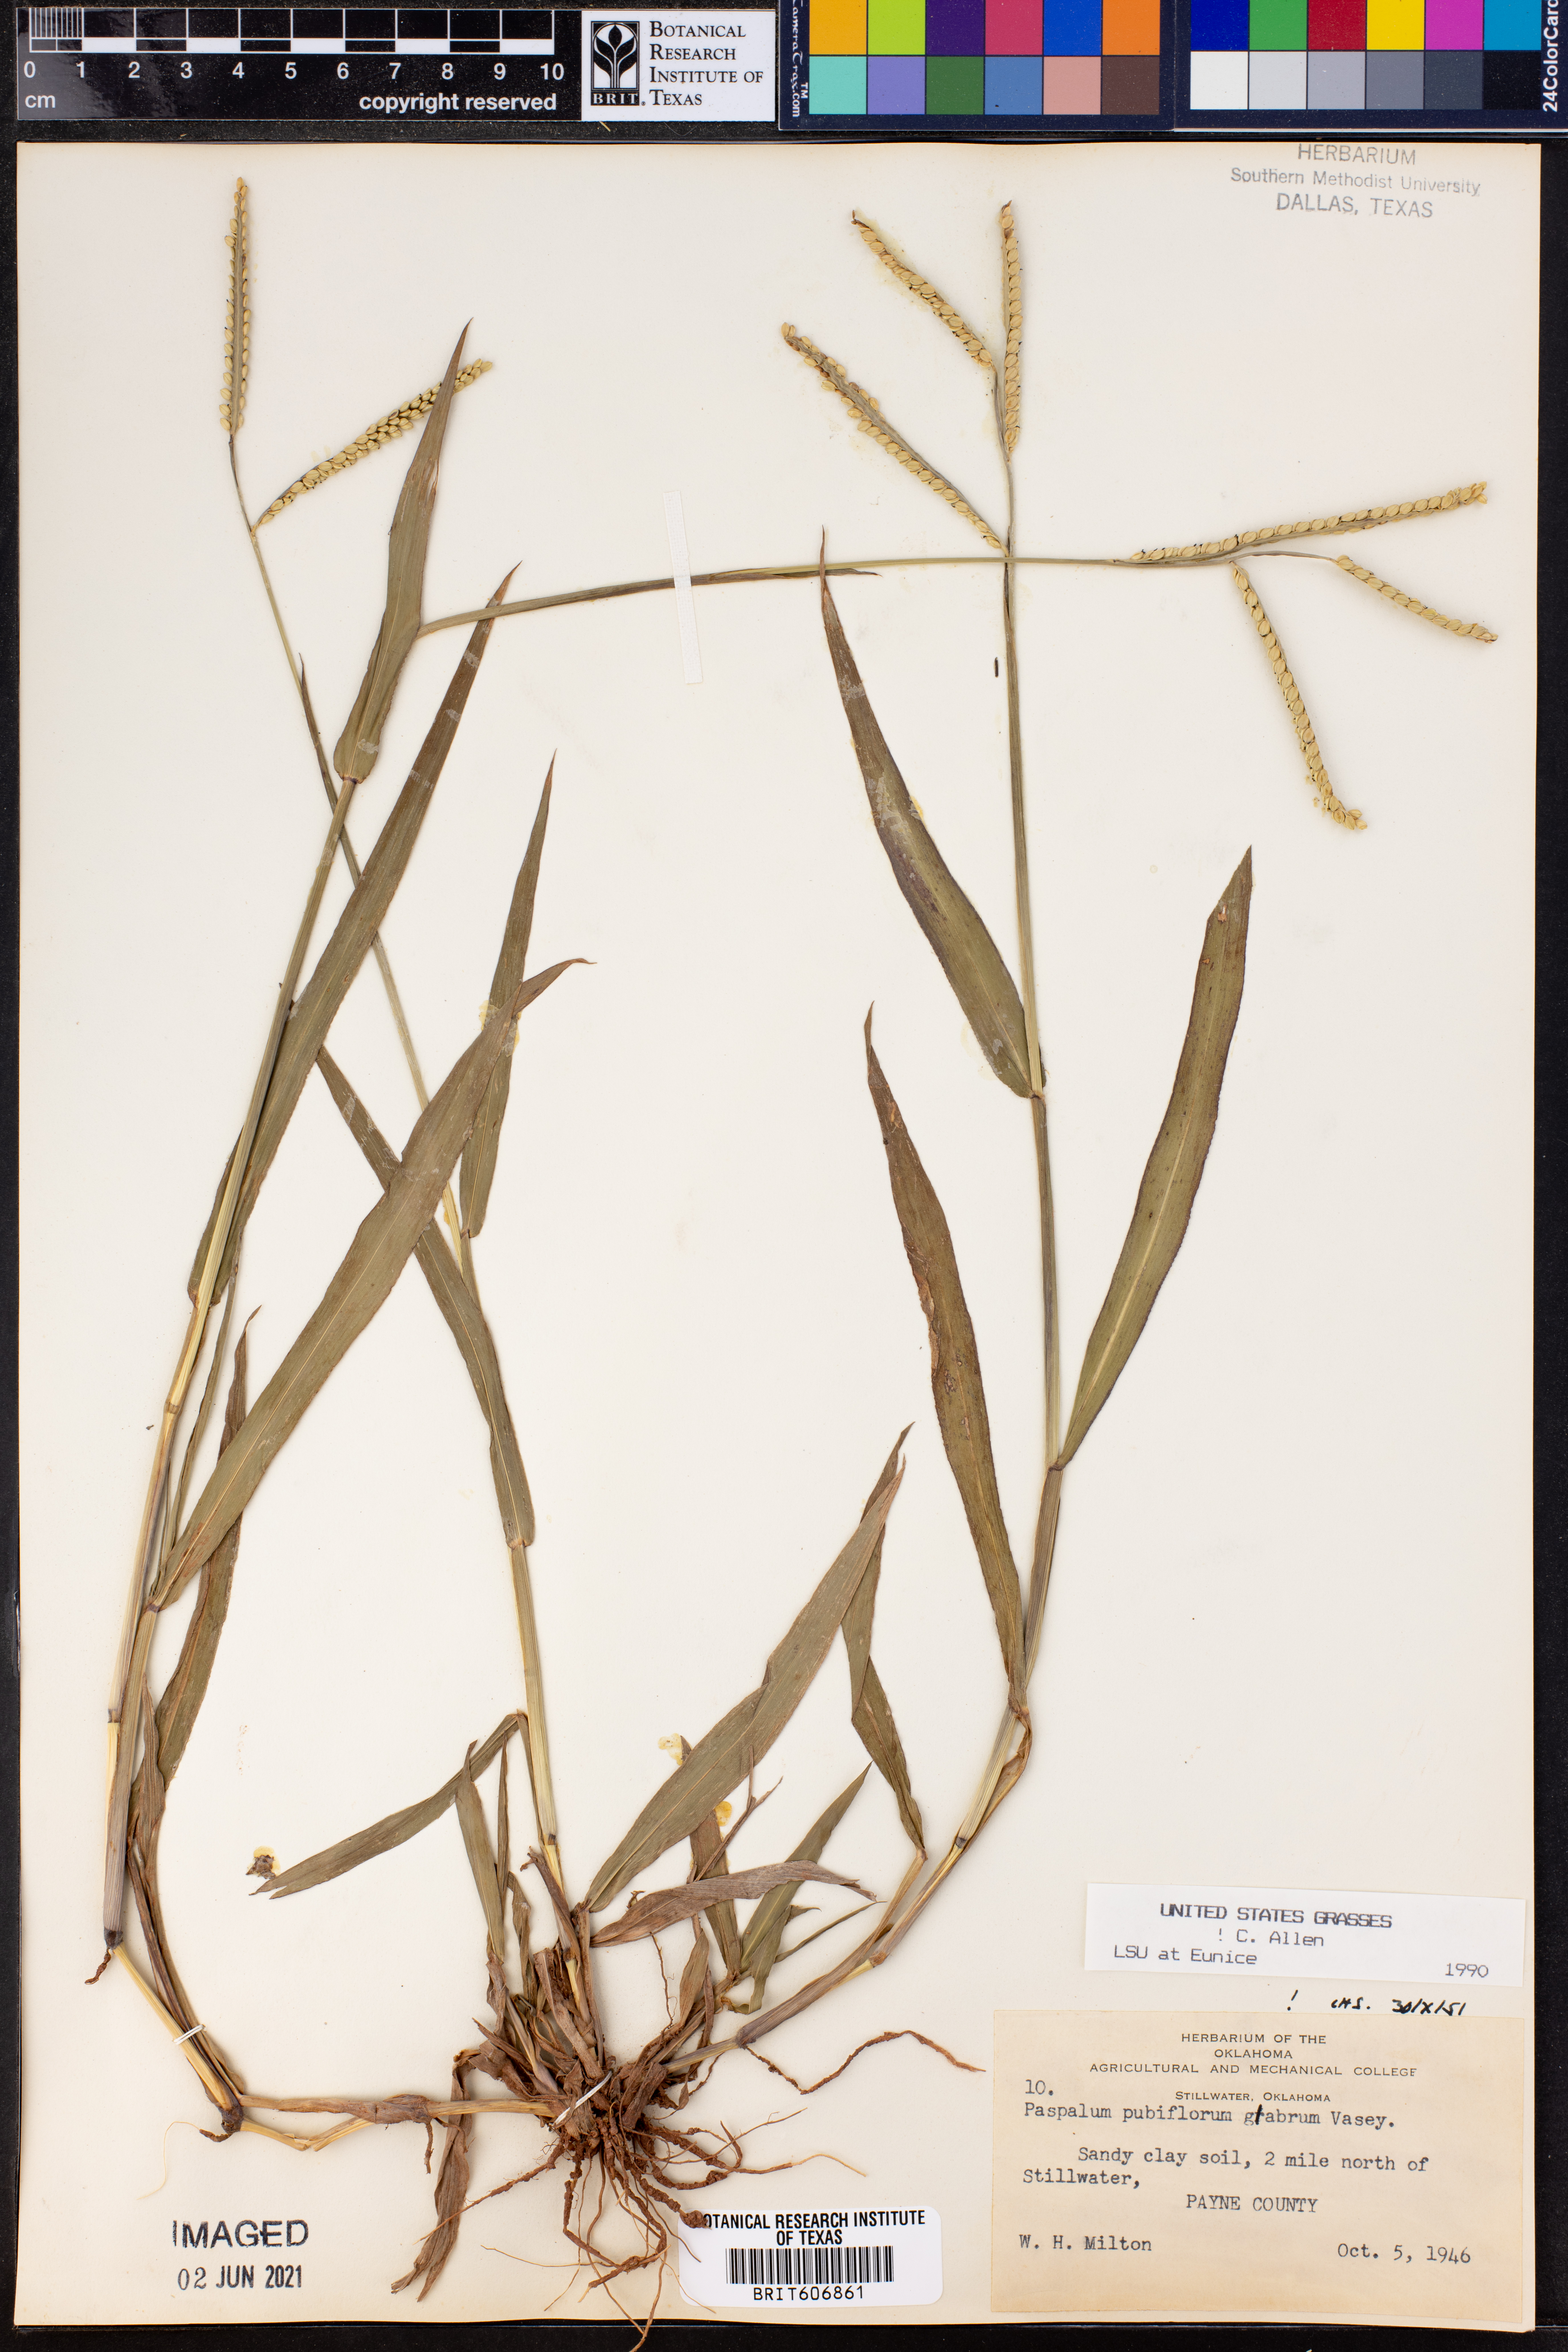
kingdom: Plantae
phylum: Tracheophyta
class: Liliopsida
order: Poales
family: Poaceae
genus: Paspalum
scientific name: Paspalum pubiflorum
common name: Hairy-seed paspalum
